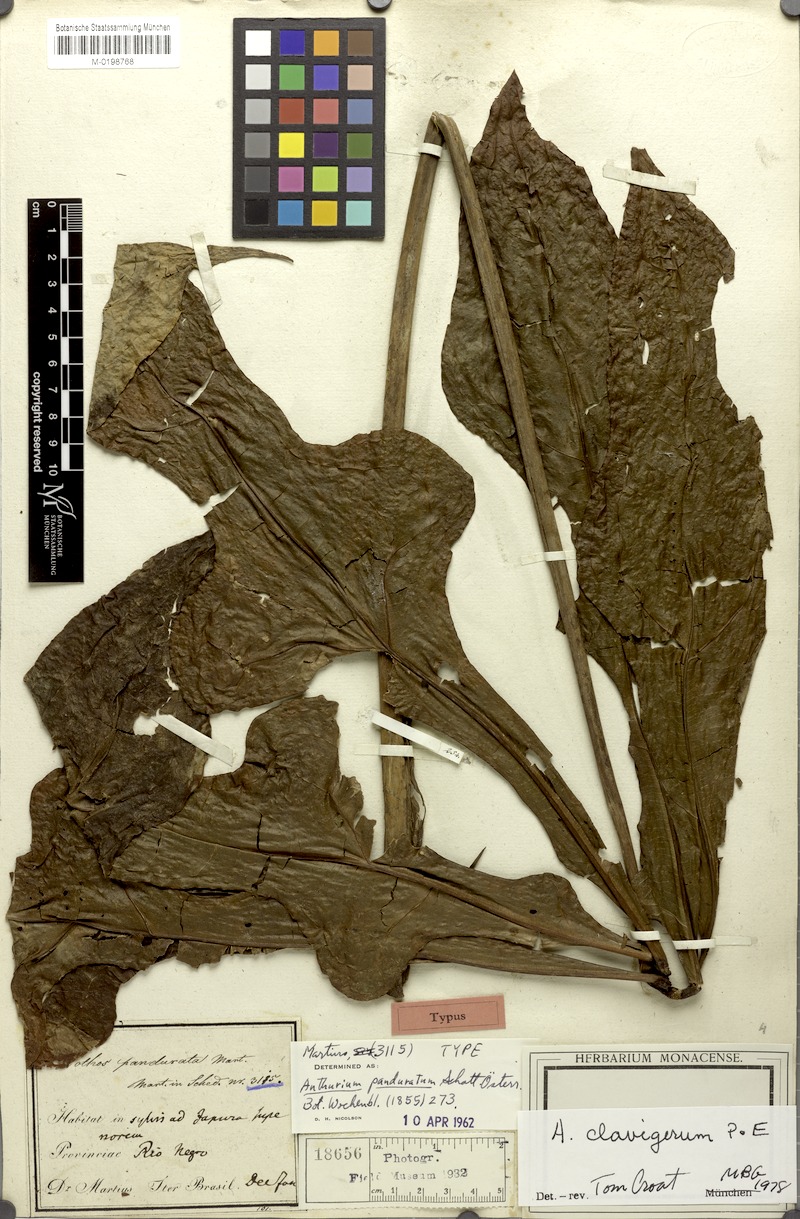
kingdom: Plantae
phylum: Tracheophyta
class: Liliopsida
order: Alismatales
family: Araceae
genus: Anthurium
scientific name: Anthurium clavigerum
